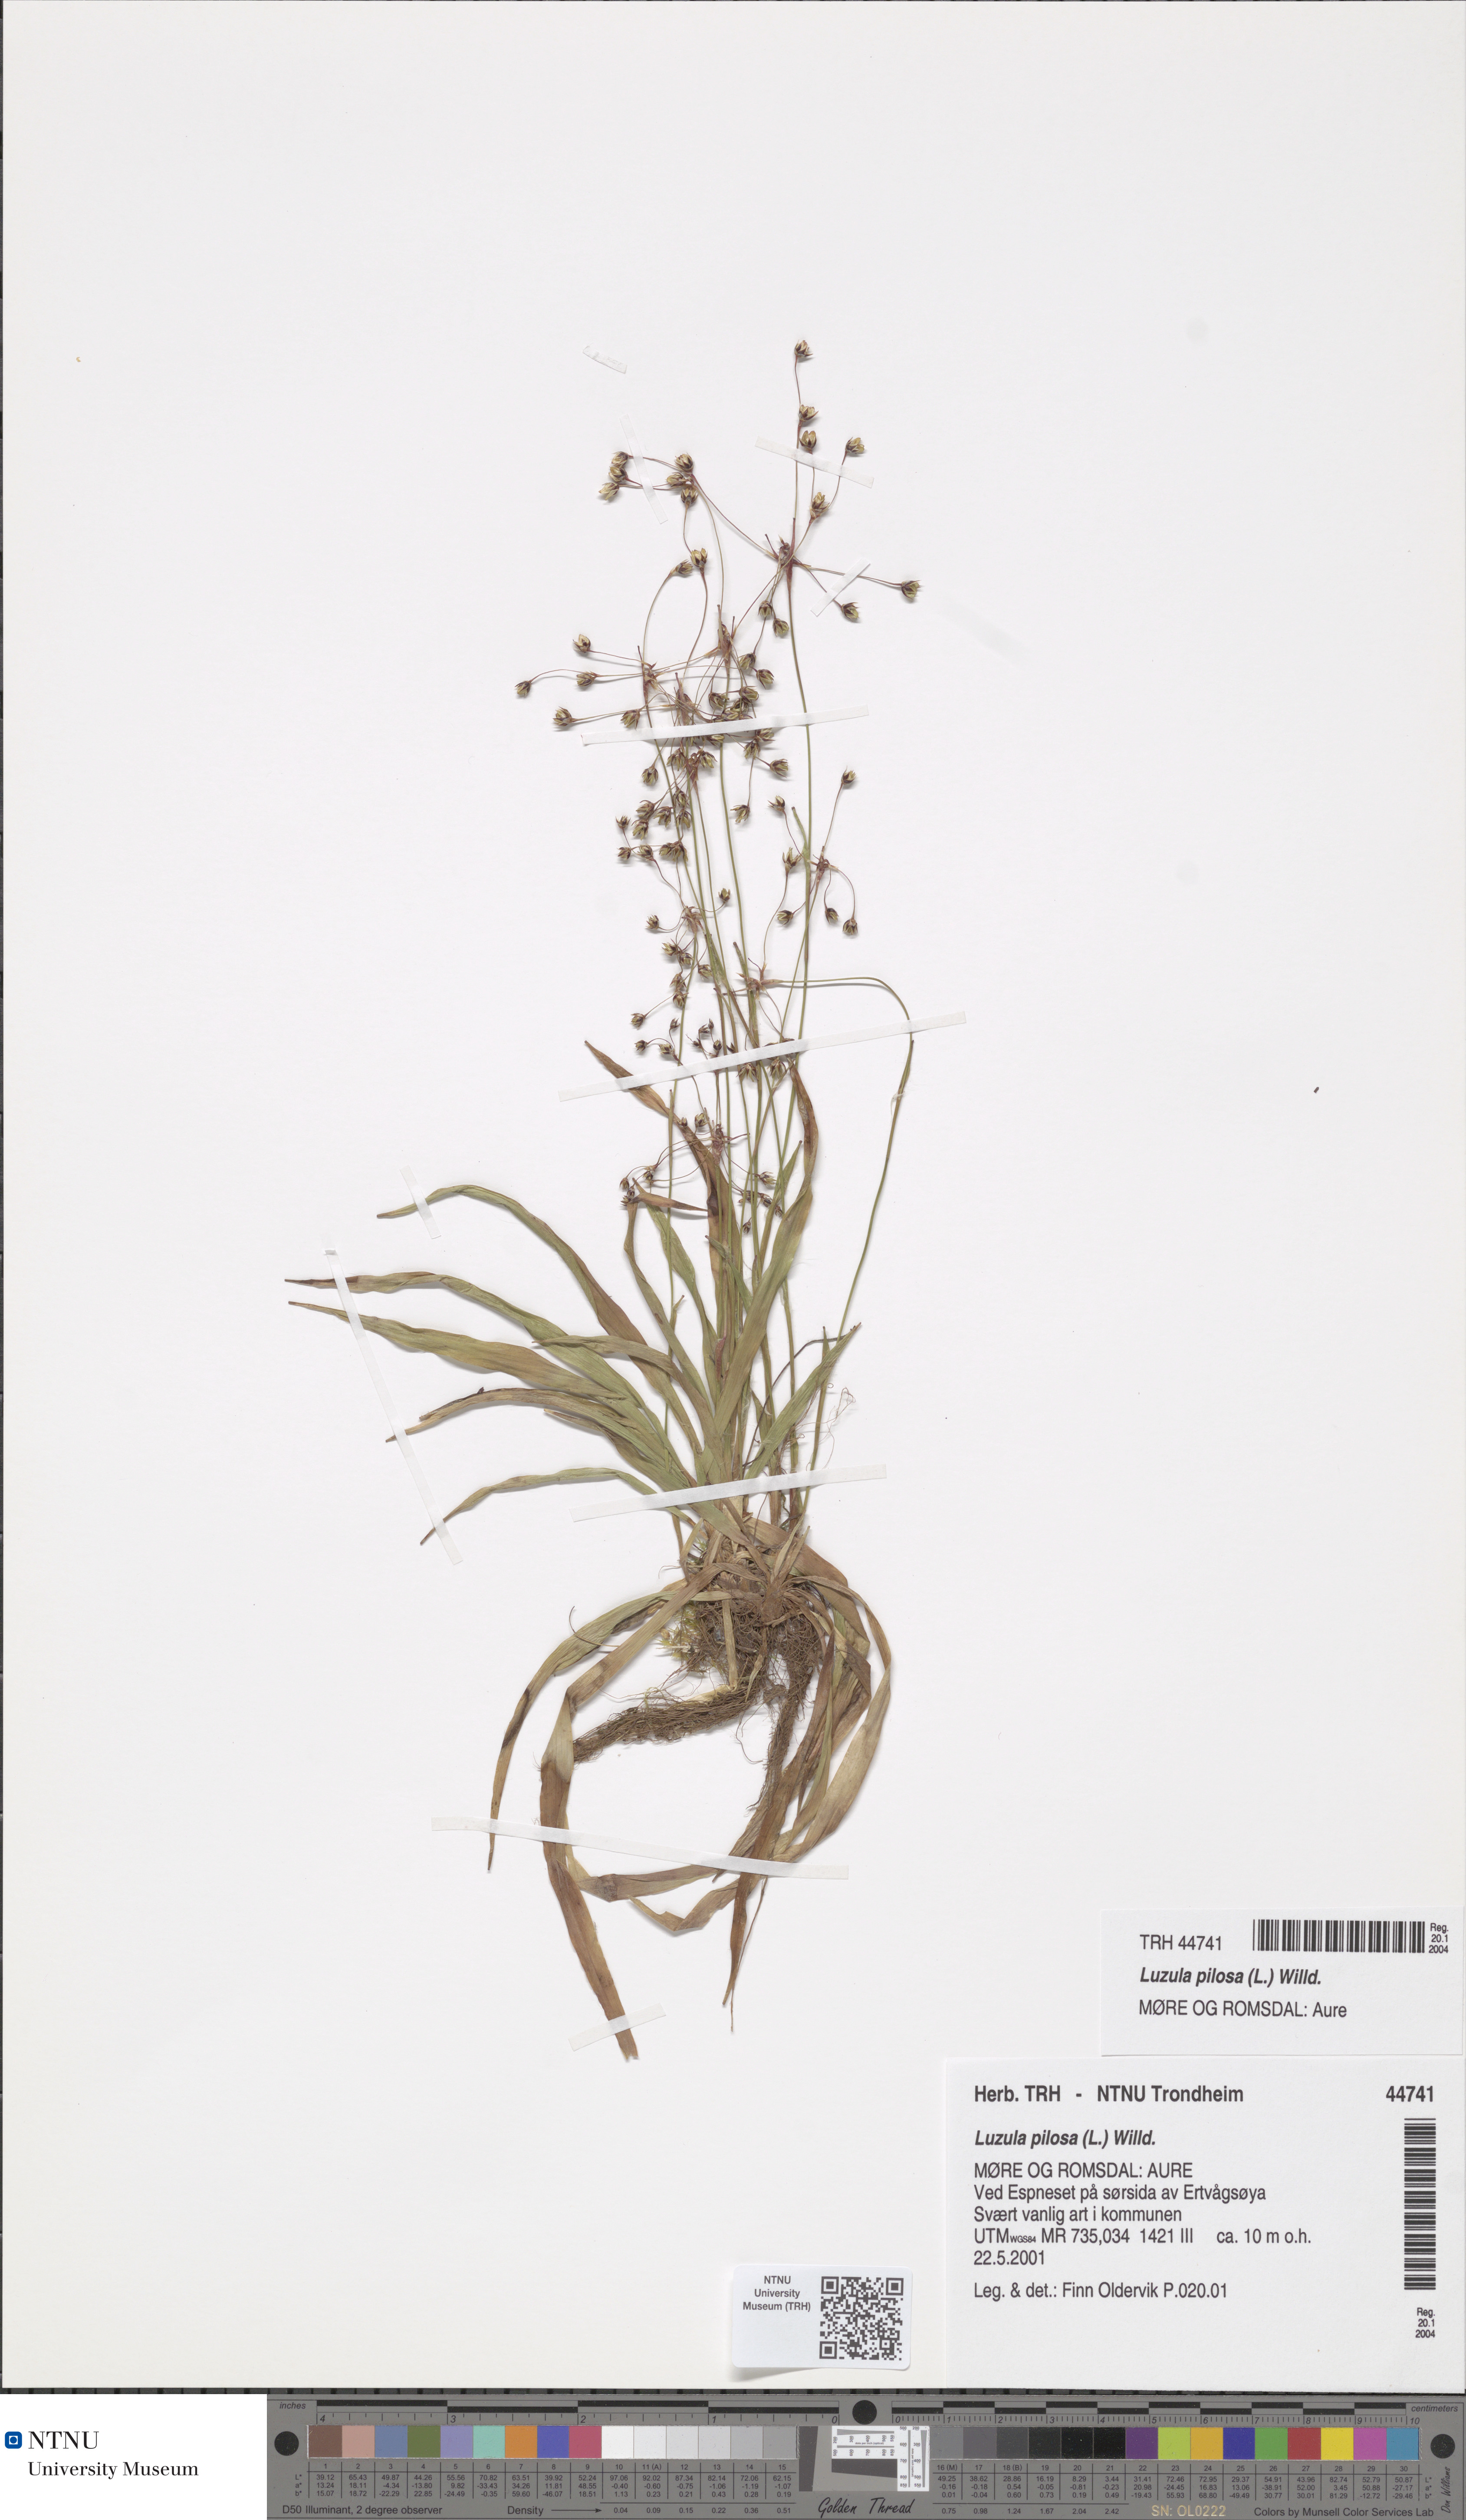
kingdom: Plantae
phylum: Tracheophyta
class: Liliopsida
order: Poales
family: Juncaceae
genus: Luzula
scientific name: Luzula pilosa
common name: Hairy wood-rush
